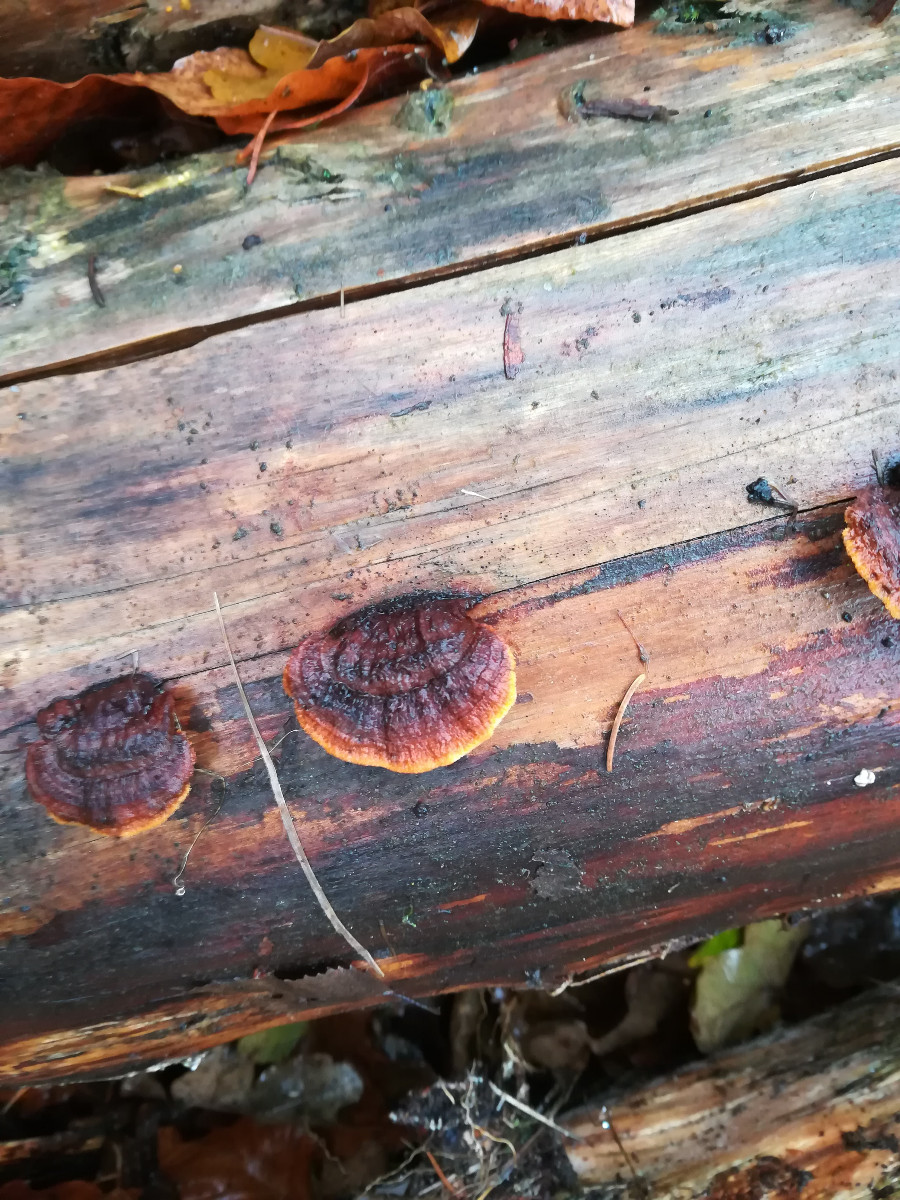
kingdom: Fungi
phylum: Basidiomycota
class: Agaricomycetes
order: Gloeophyllales
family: Gloeophyllaceae
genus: Gloeophyllum
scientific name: Gloeophyllum sepiarium
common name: fyrre-korkhat
